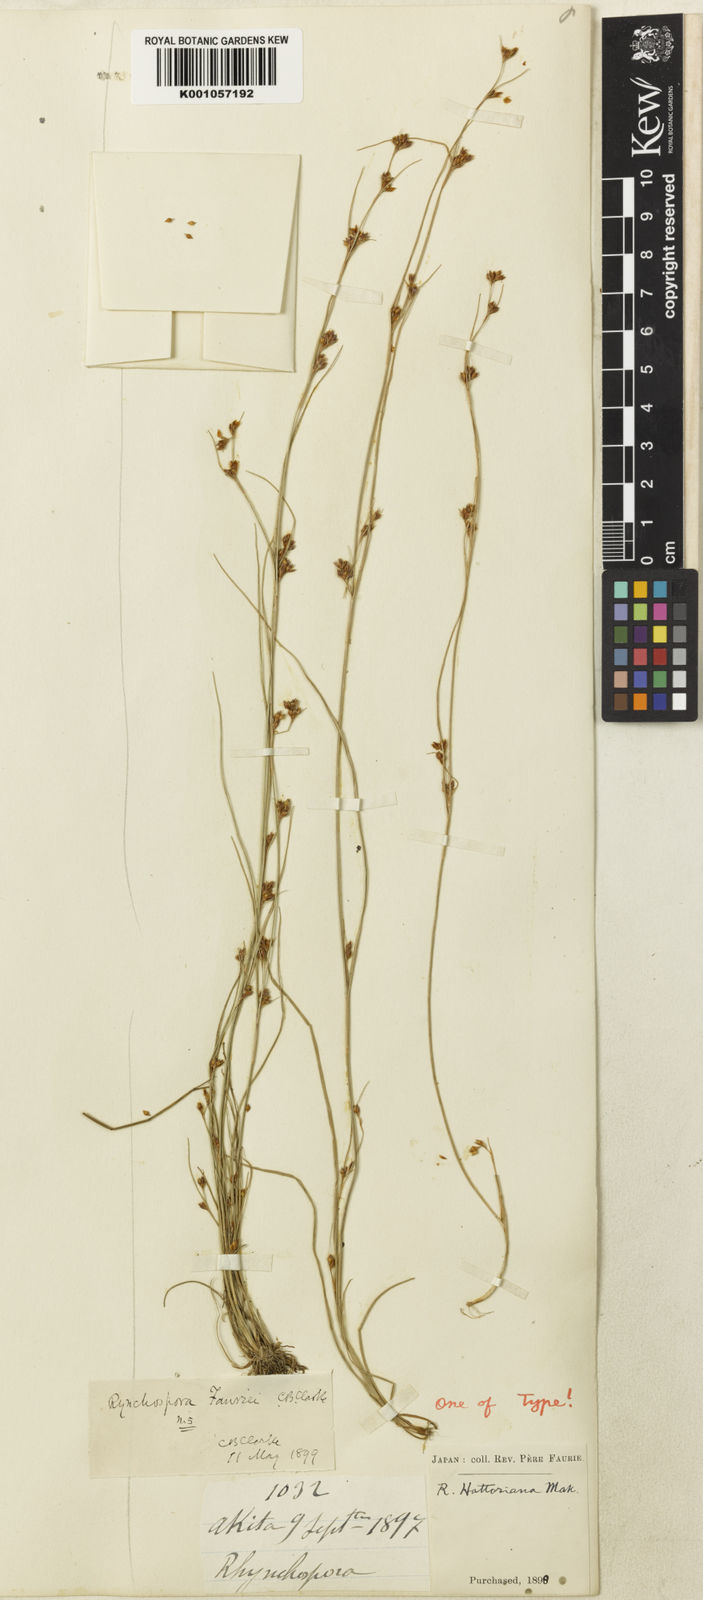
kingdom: Plantae
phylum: Tracheophyta
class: Liliopsida
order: Poales
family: Cyperaceae
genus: Rhynchospora
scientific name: Rhynchospora
